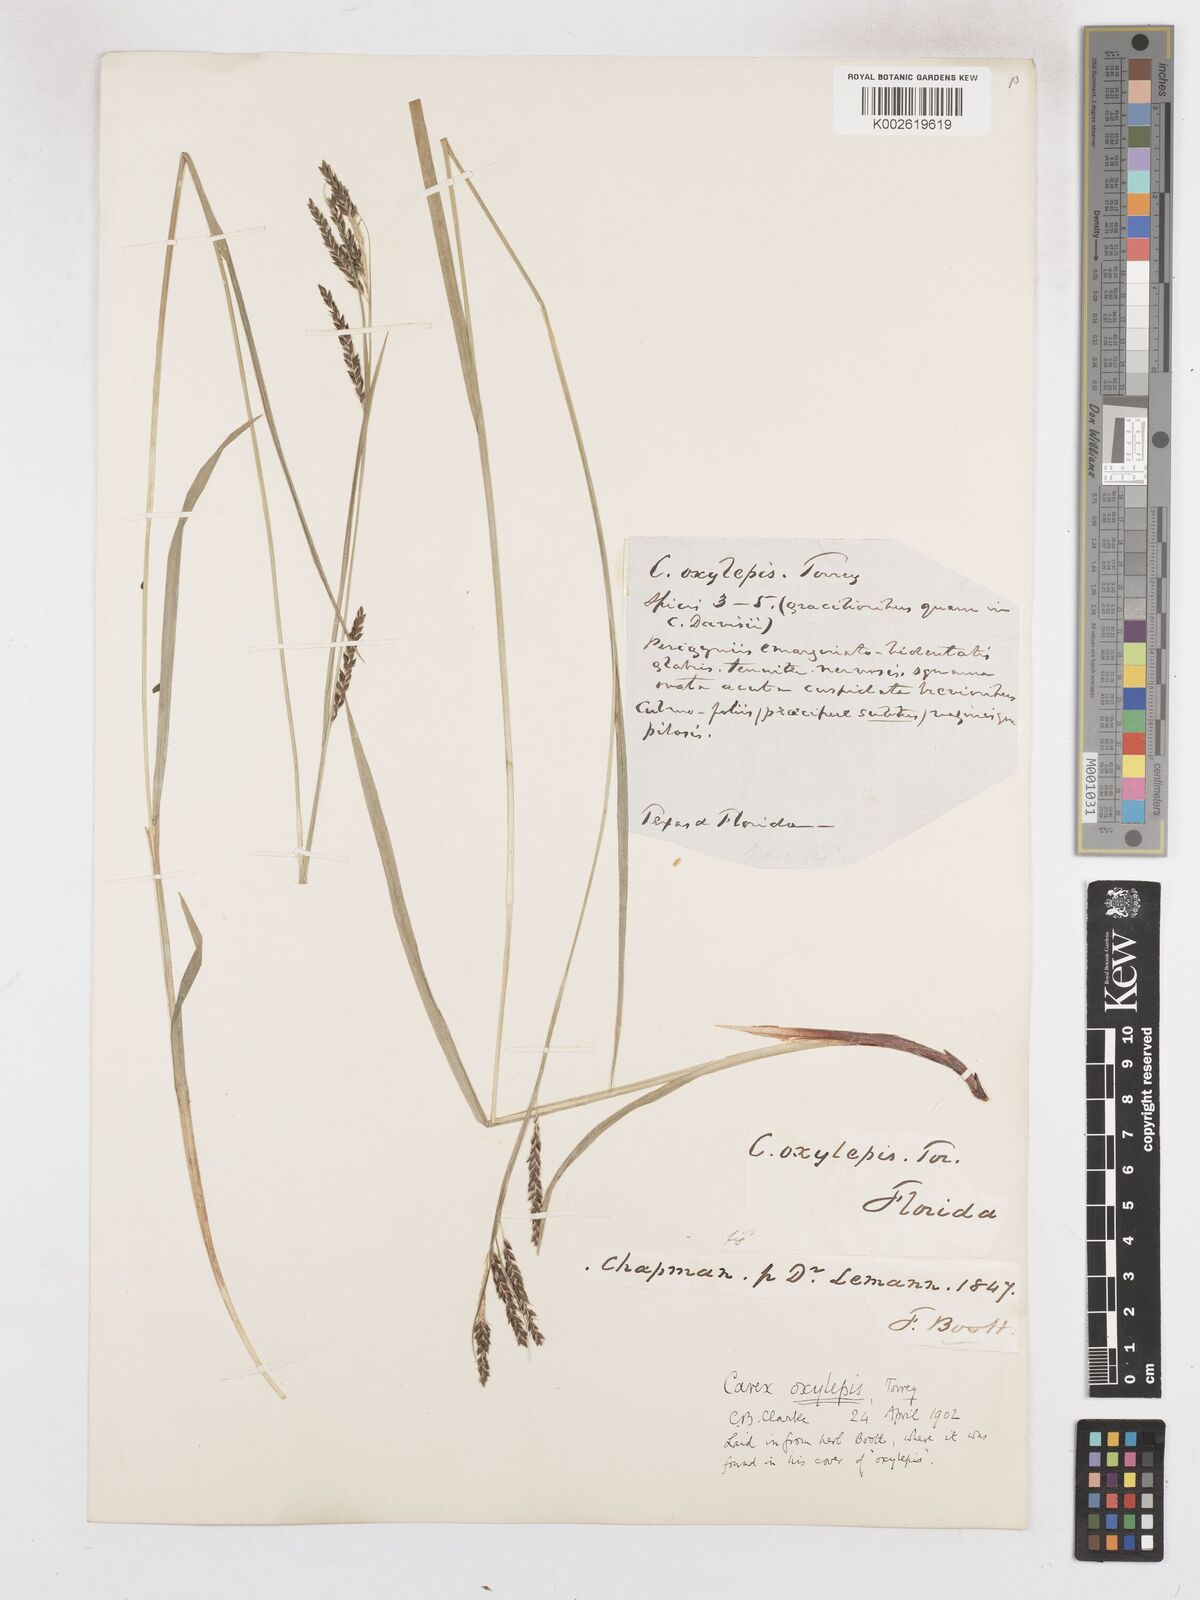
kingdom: Plantae
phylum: Tracheophyta
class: Liliopsida
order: Poales
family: Cyperaceae
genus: Carex
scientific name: Carex oxylepis
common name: Sharpscale sedge
